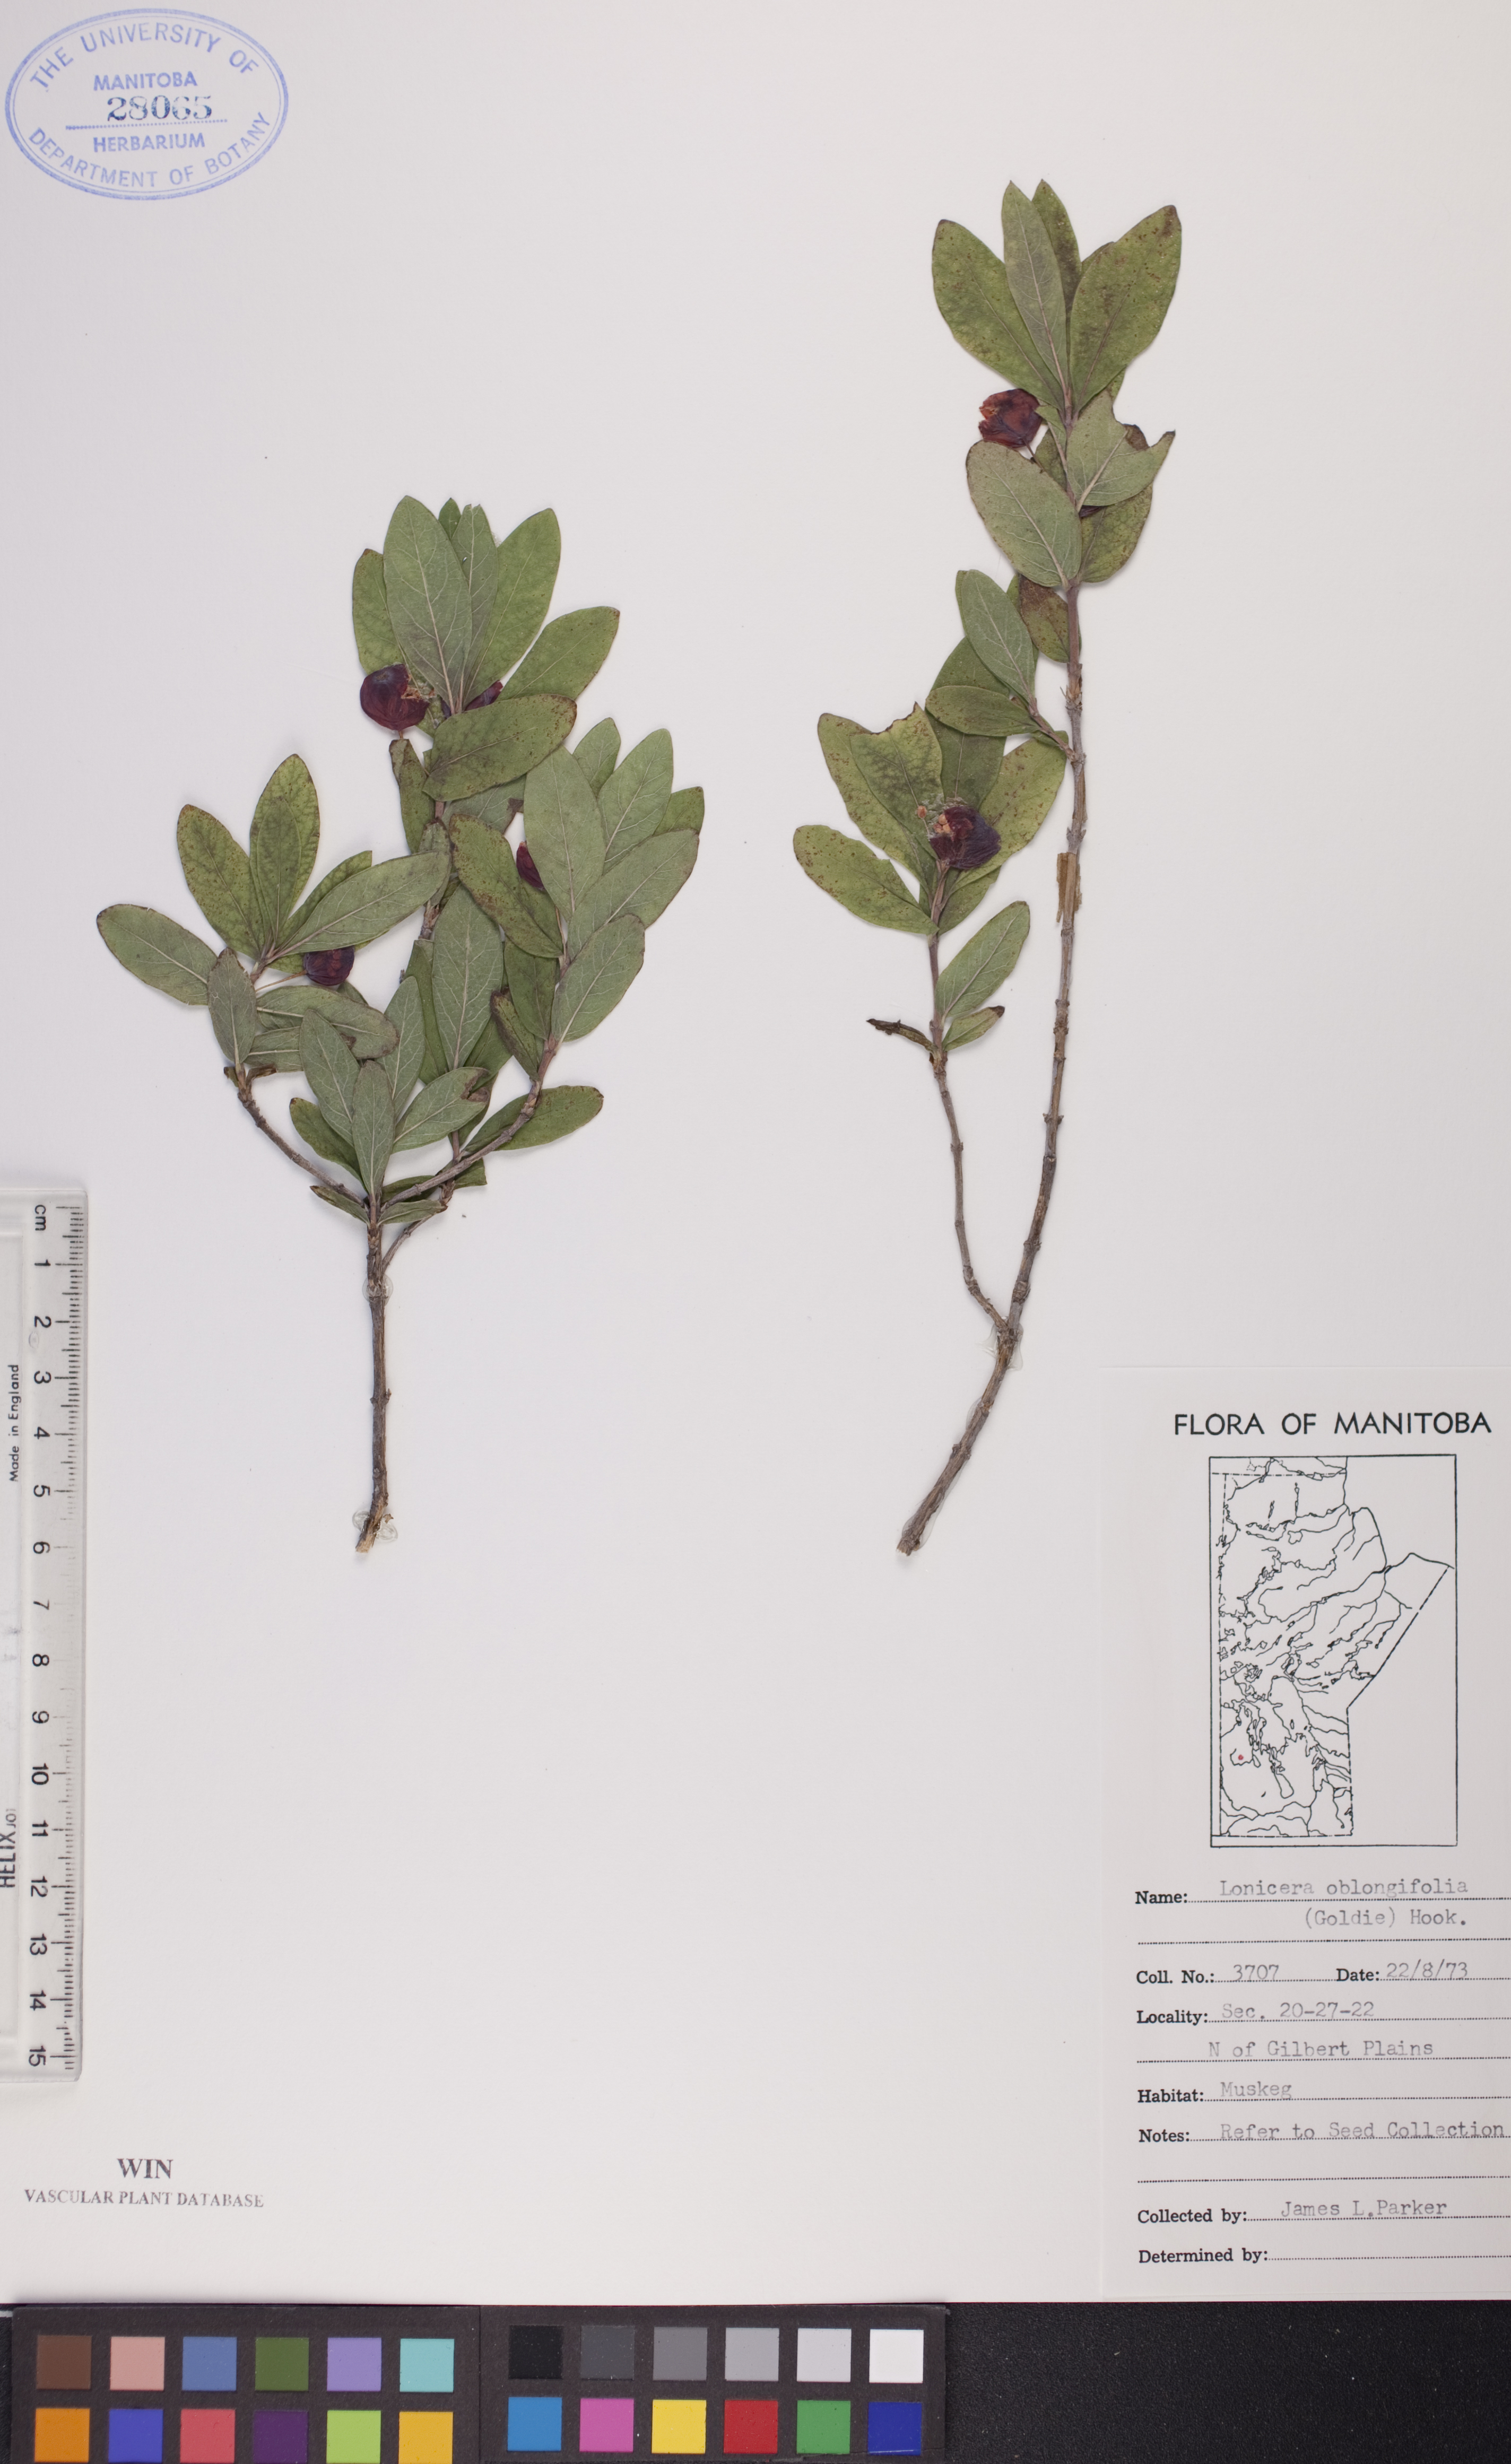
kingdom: Plantae
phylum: Tracheophyta
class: Magnoliopsida
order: Dipsacales
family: Caprifoliaceae
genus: Lonicera
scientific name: Lonicera oblongifolia
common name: Swamp fly honeysuckle
